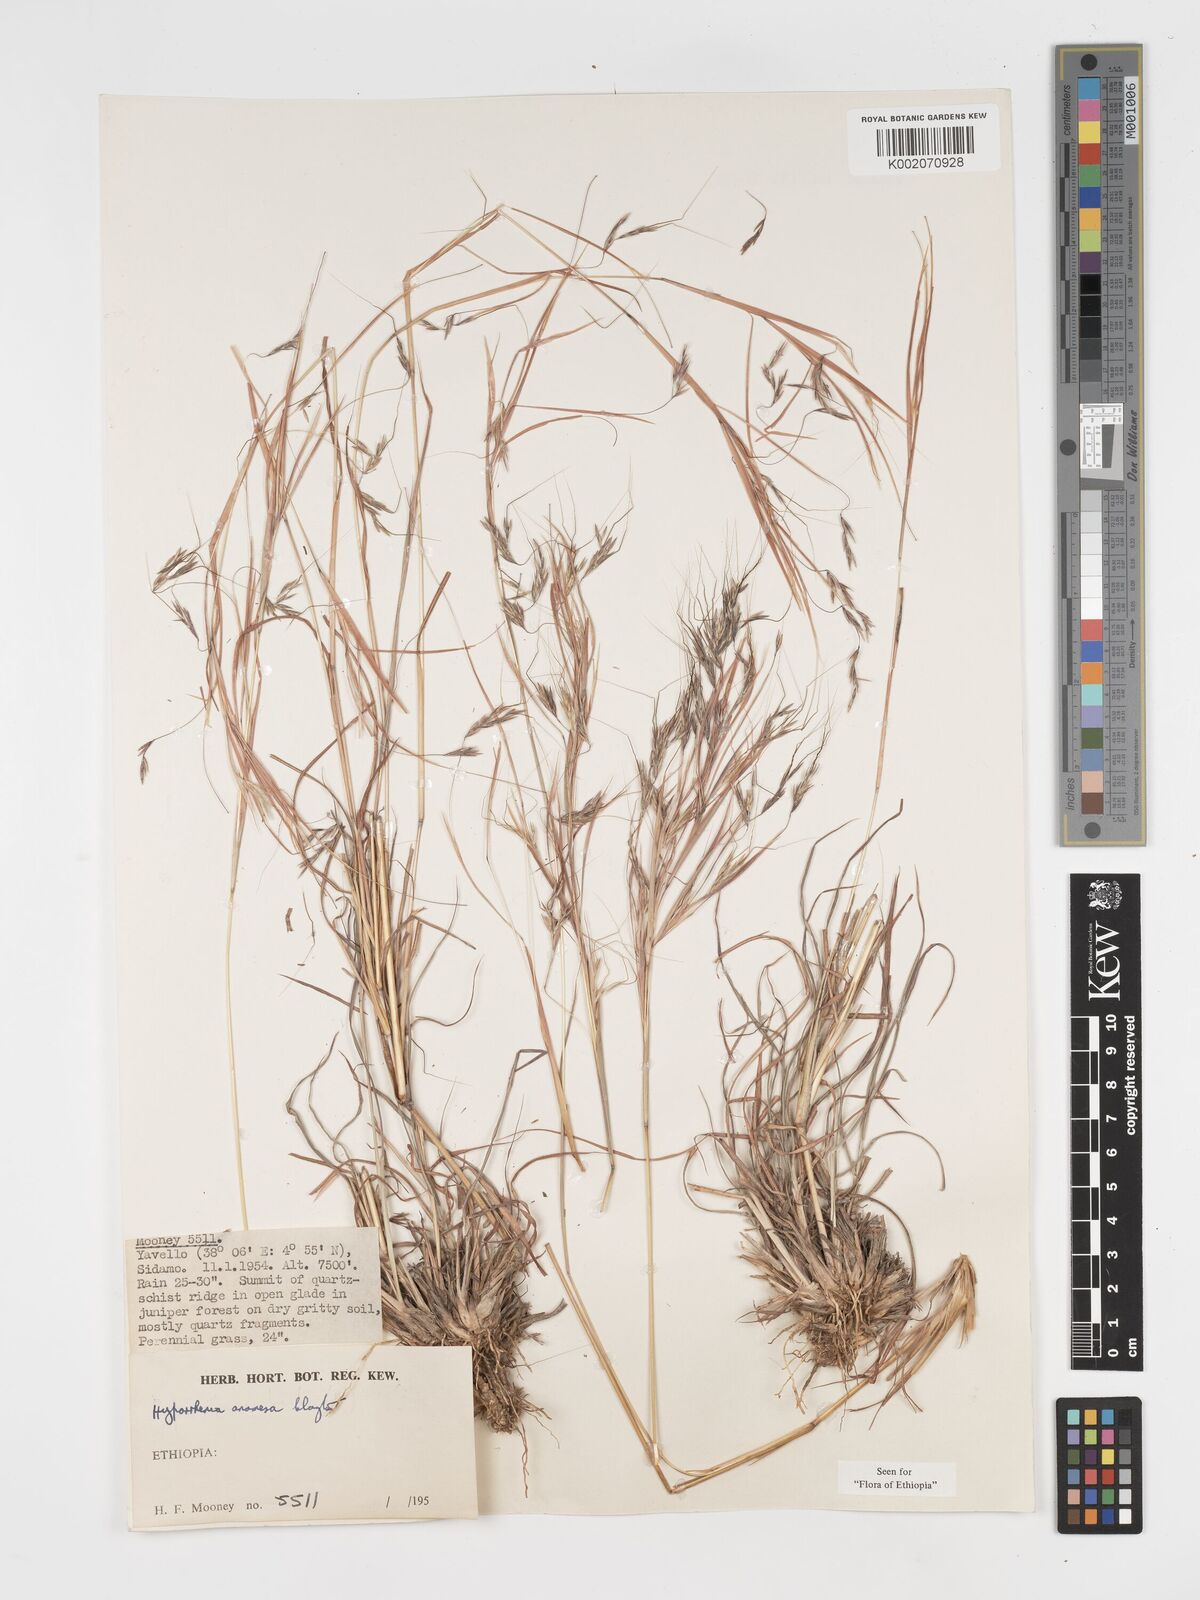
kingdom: Plantae
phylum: Tracheophyta
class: Liliopsida
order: Poales
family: Poaceae
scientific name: Poaceae
